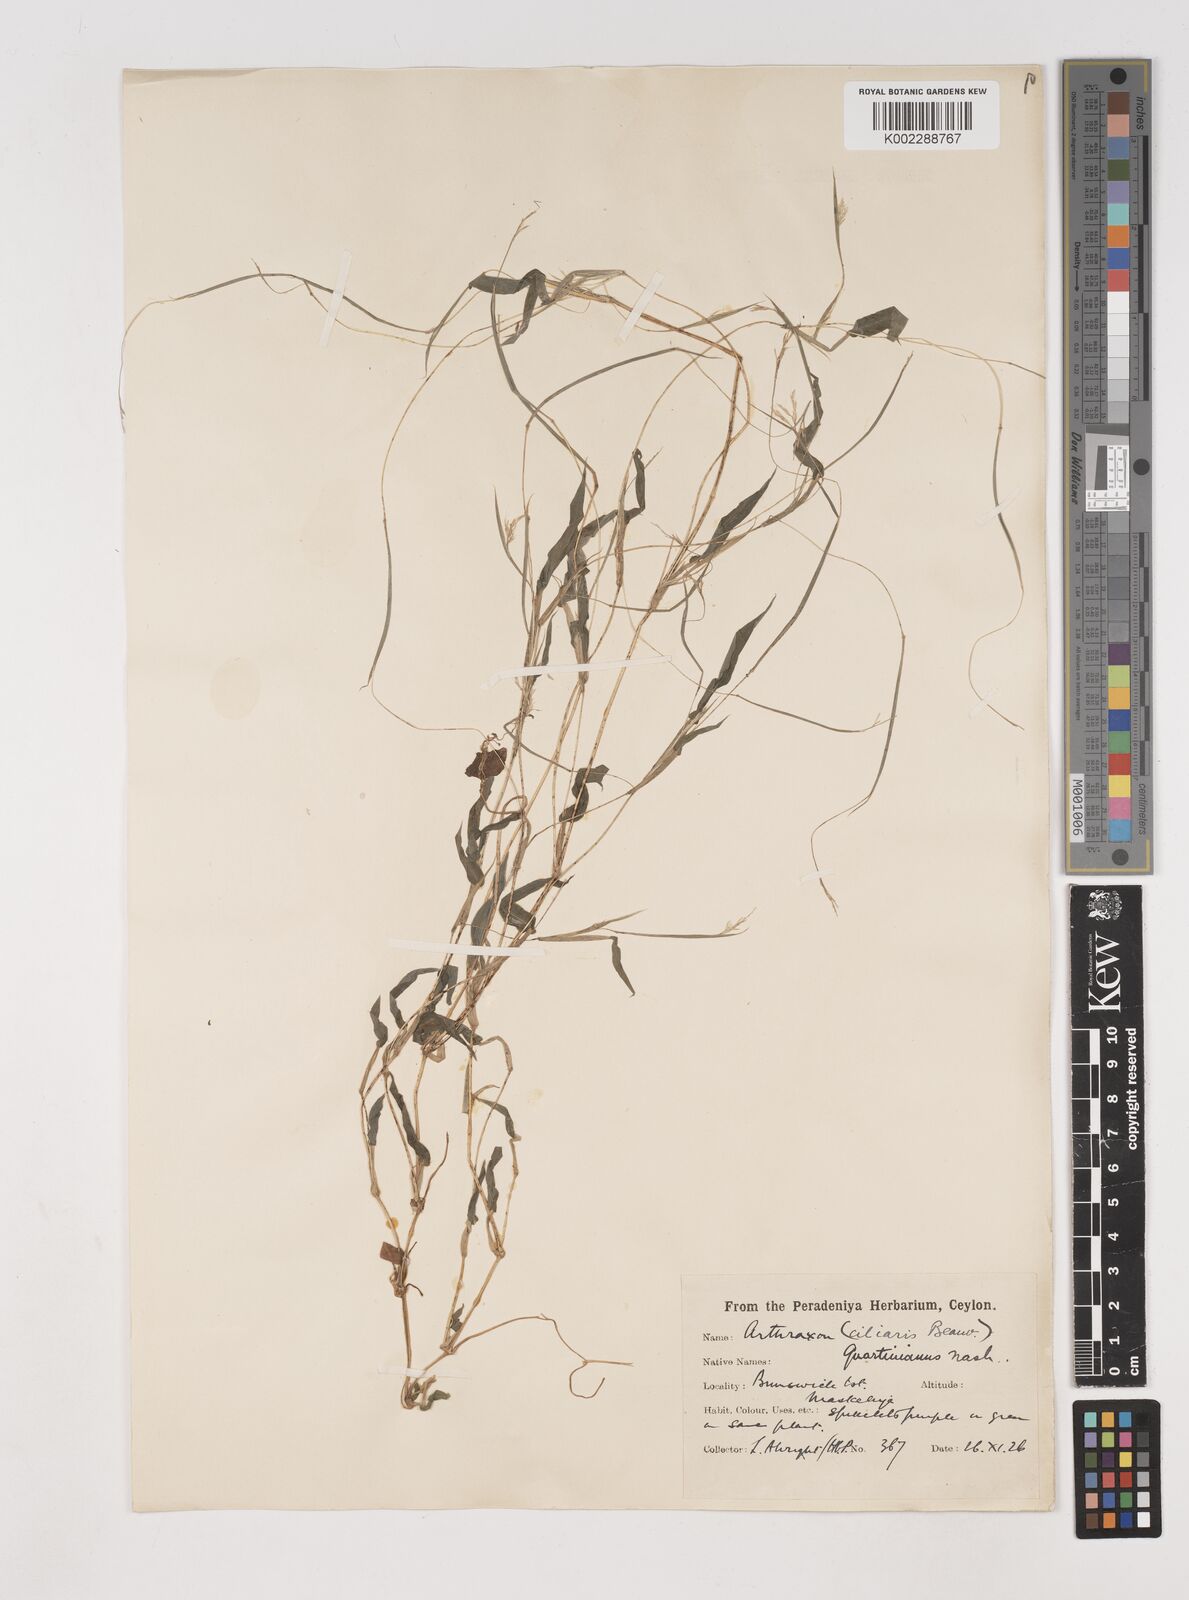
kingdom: Plantae
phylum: Tracheophyta
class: Liliopsida
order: Poales
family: Poaceae
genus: Arthraxon
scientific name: Arthraxon hispidus
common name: Small carpgrass
